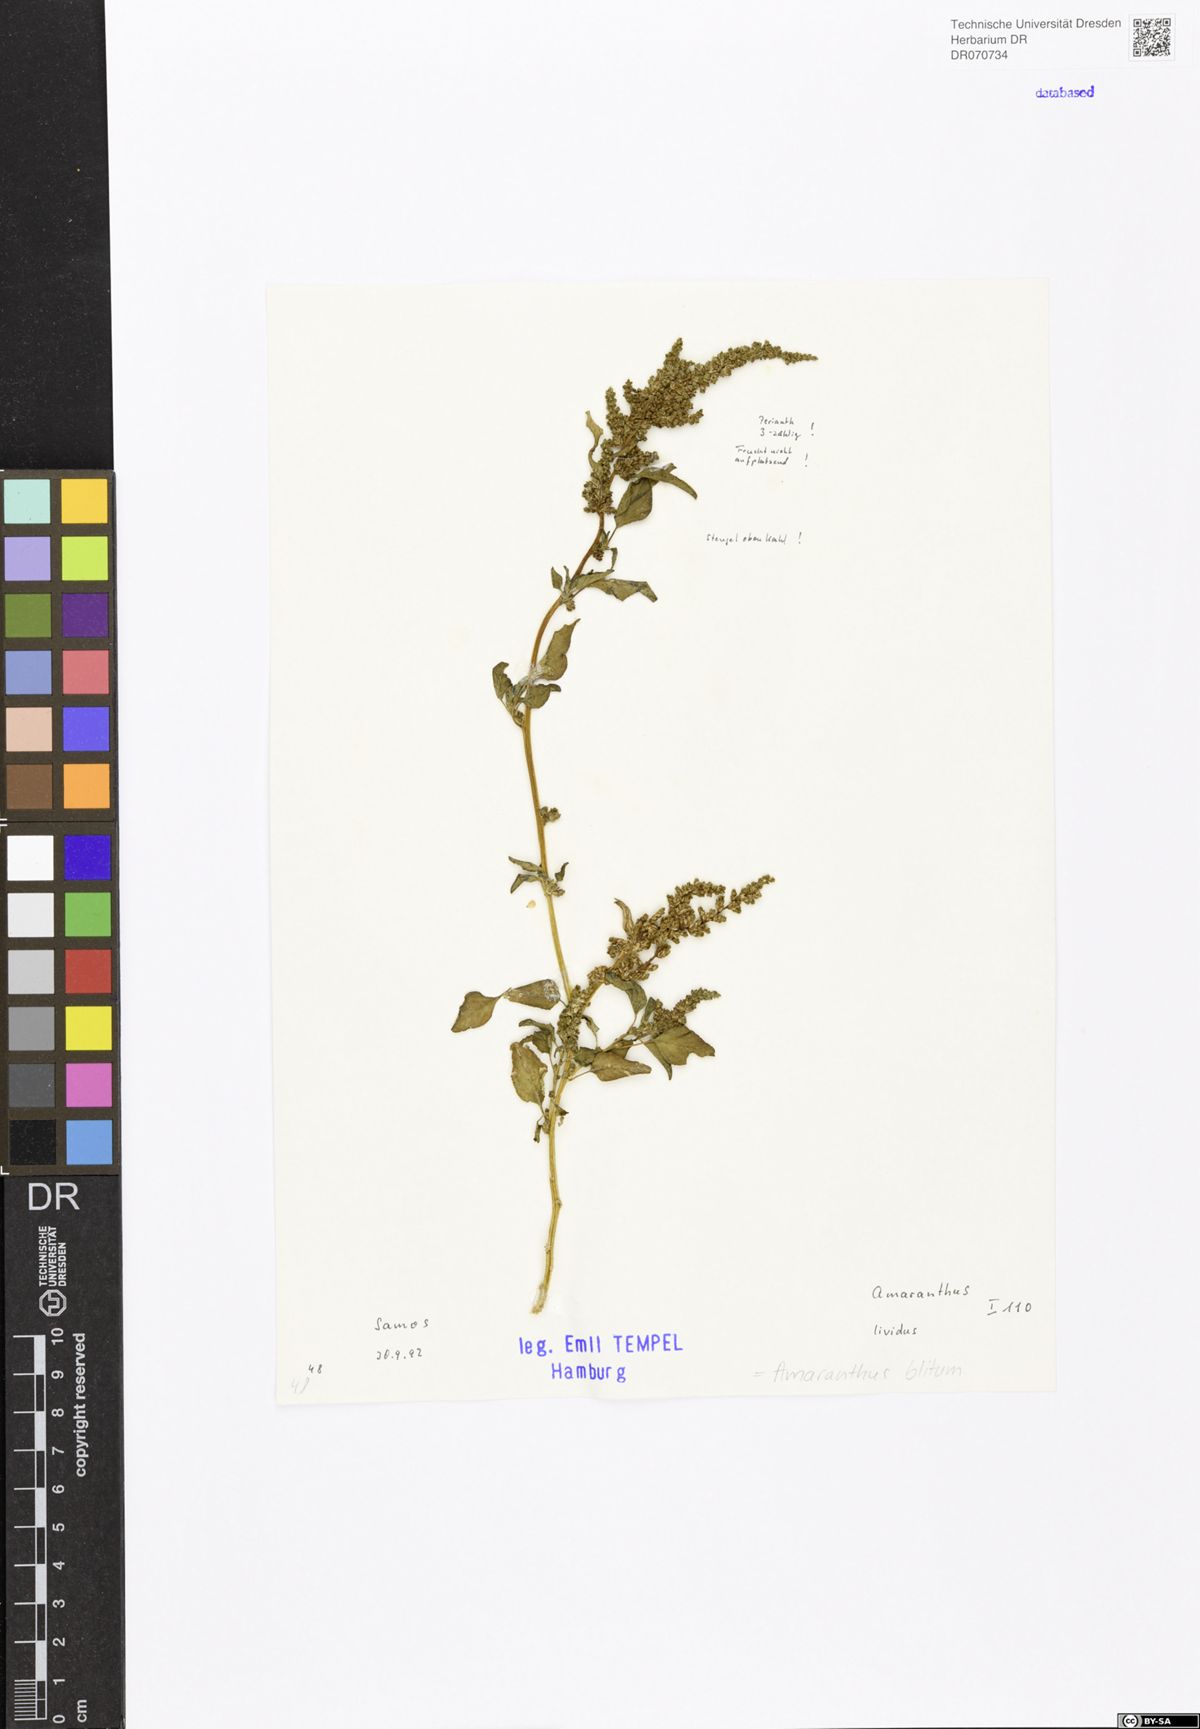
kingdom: Plantae
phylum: Tracheophyta
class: Magnoliopsida
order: Caryophyllales
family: Amaranthaceae
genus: Amaranthus
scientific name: Amaranthus blitum
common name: Purple amaranth
